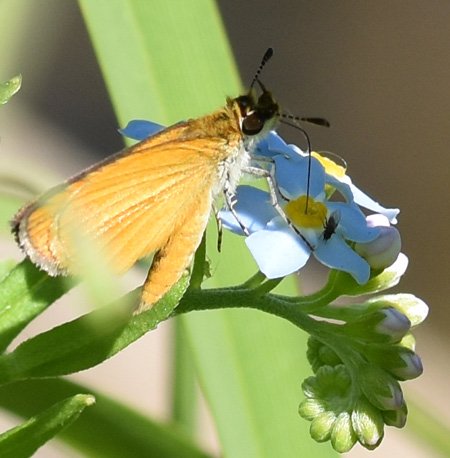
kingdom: Animalia
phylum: Arthropoda
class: Insecta
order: Lepidoptera
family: Hesperiidae
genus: Thymelicus
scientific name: Thymelicus lineola
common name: European Skipper
